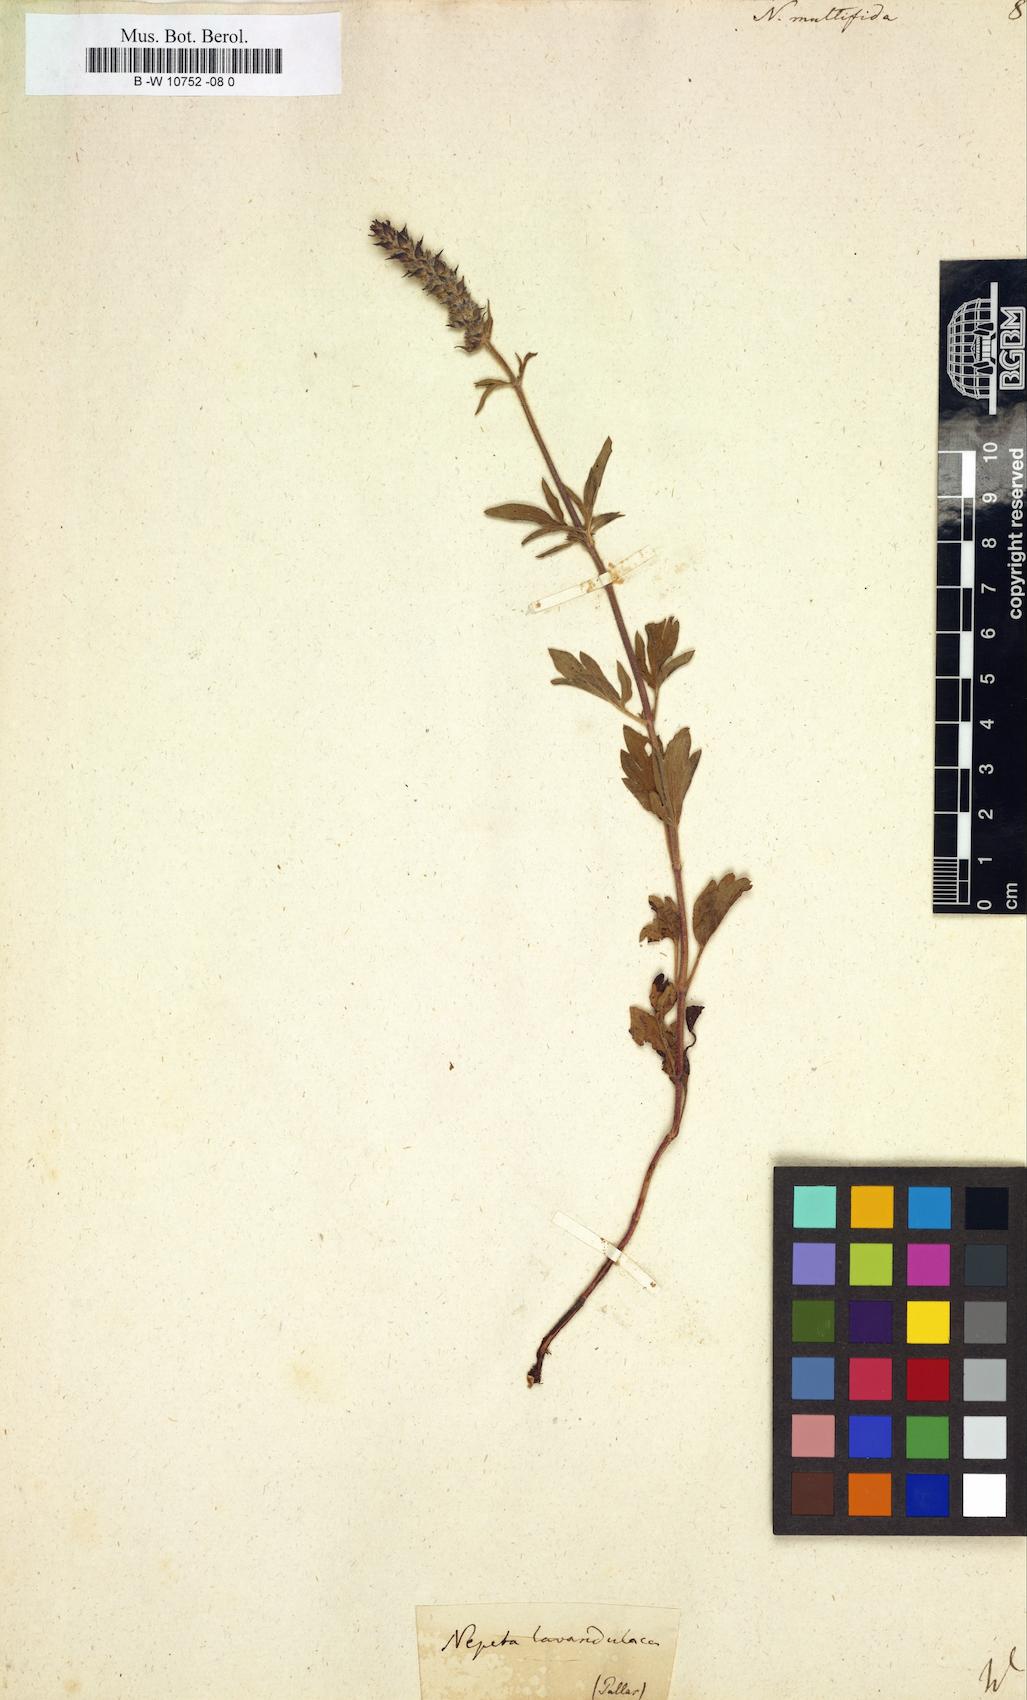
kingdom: Plantae
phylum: Tracheophyta
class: Magnoliopsida
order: Lamiales
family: Lamiaceae
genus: Nepeta
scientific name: Nepeta multifida
